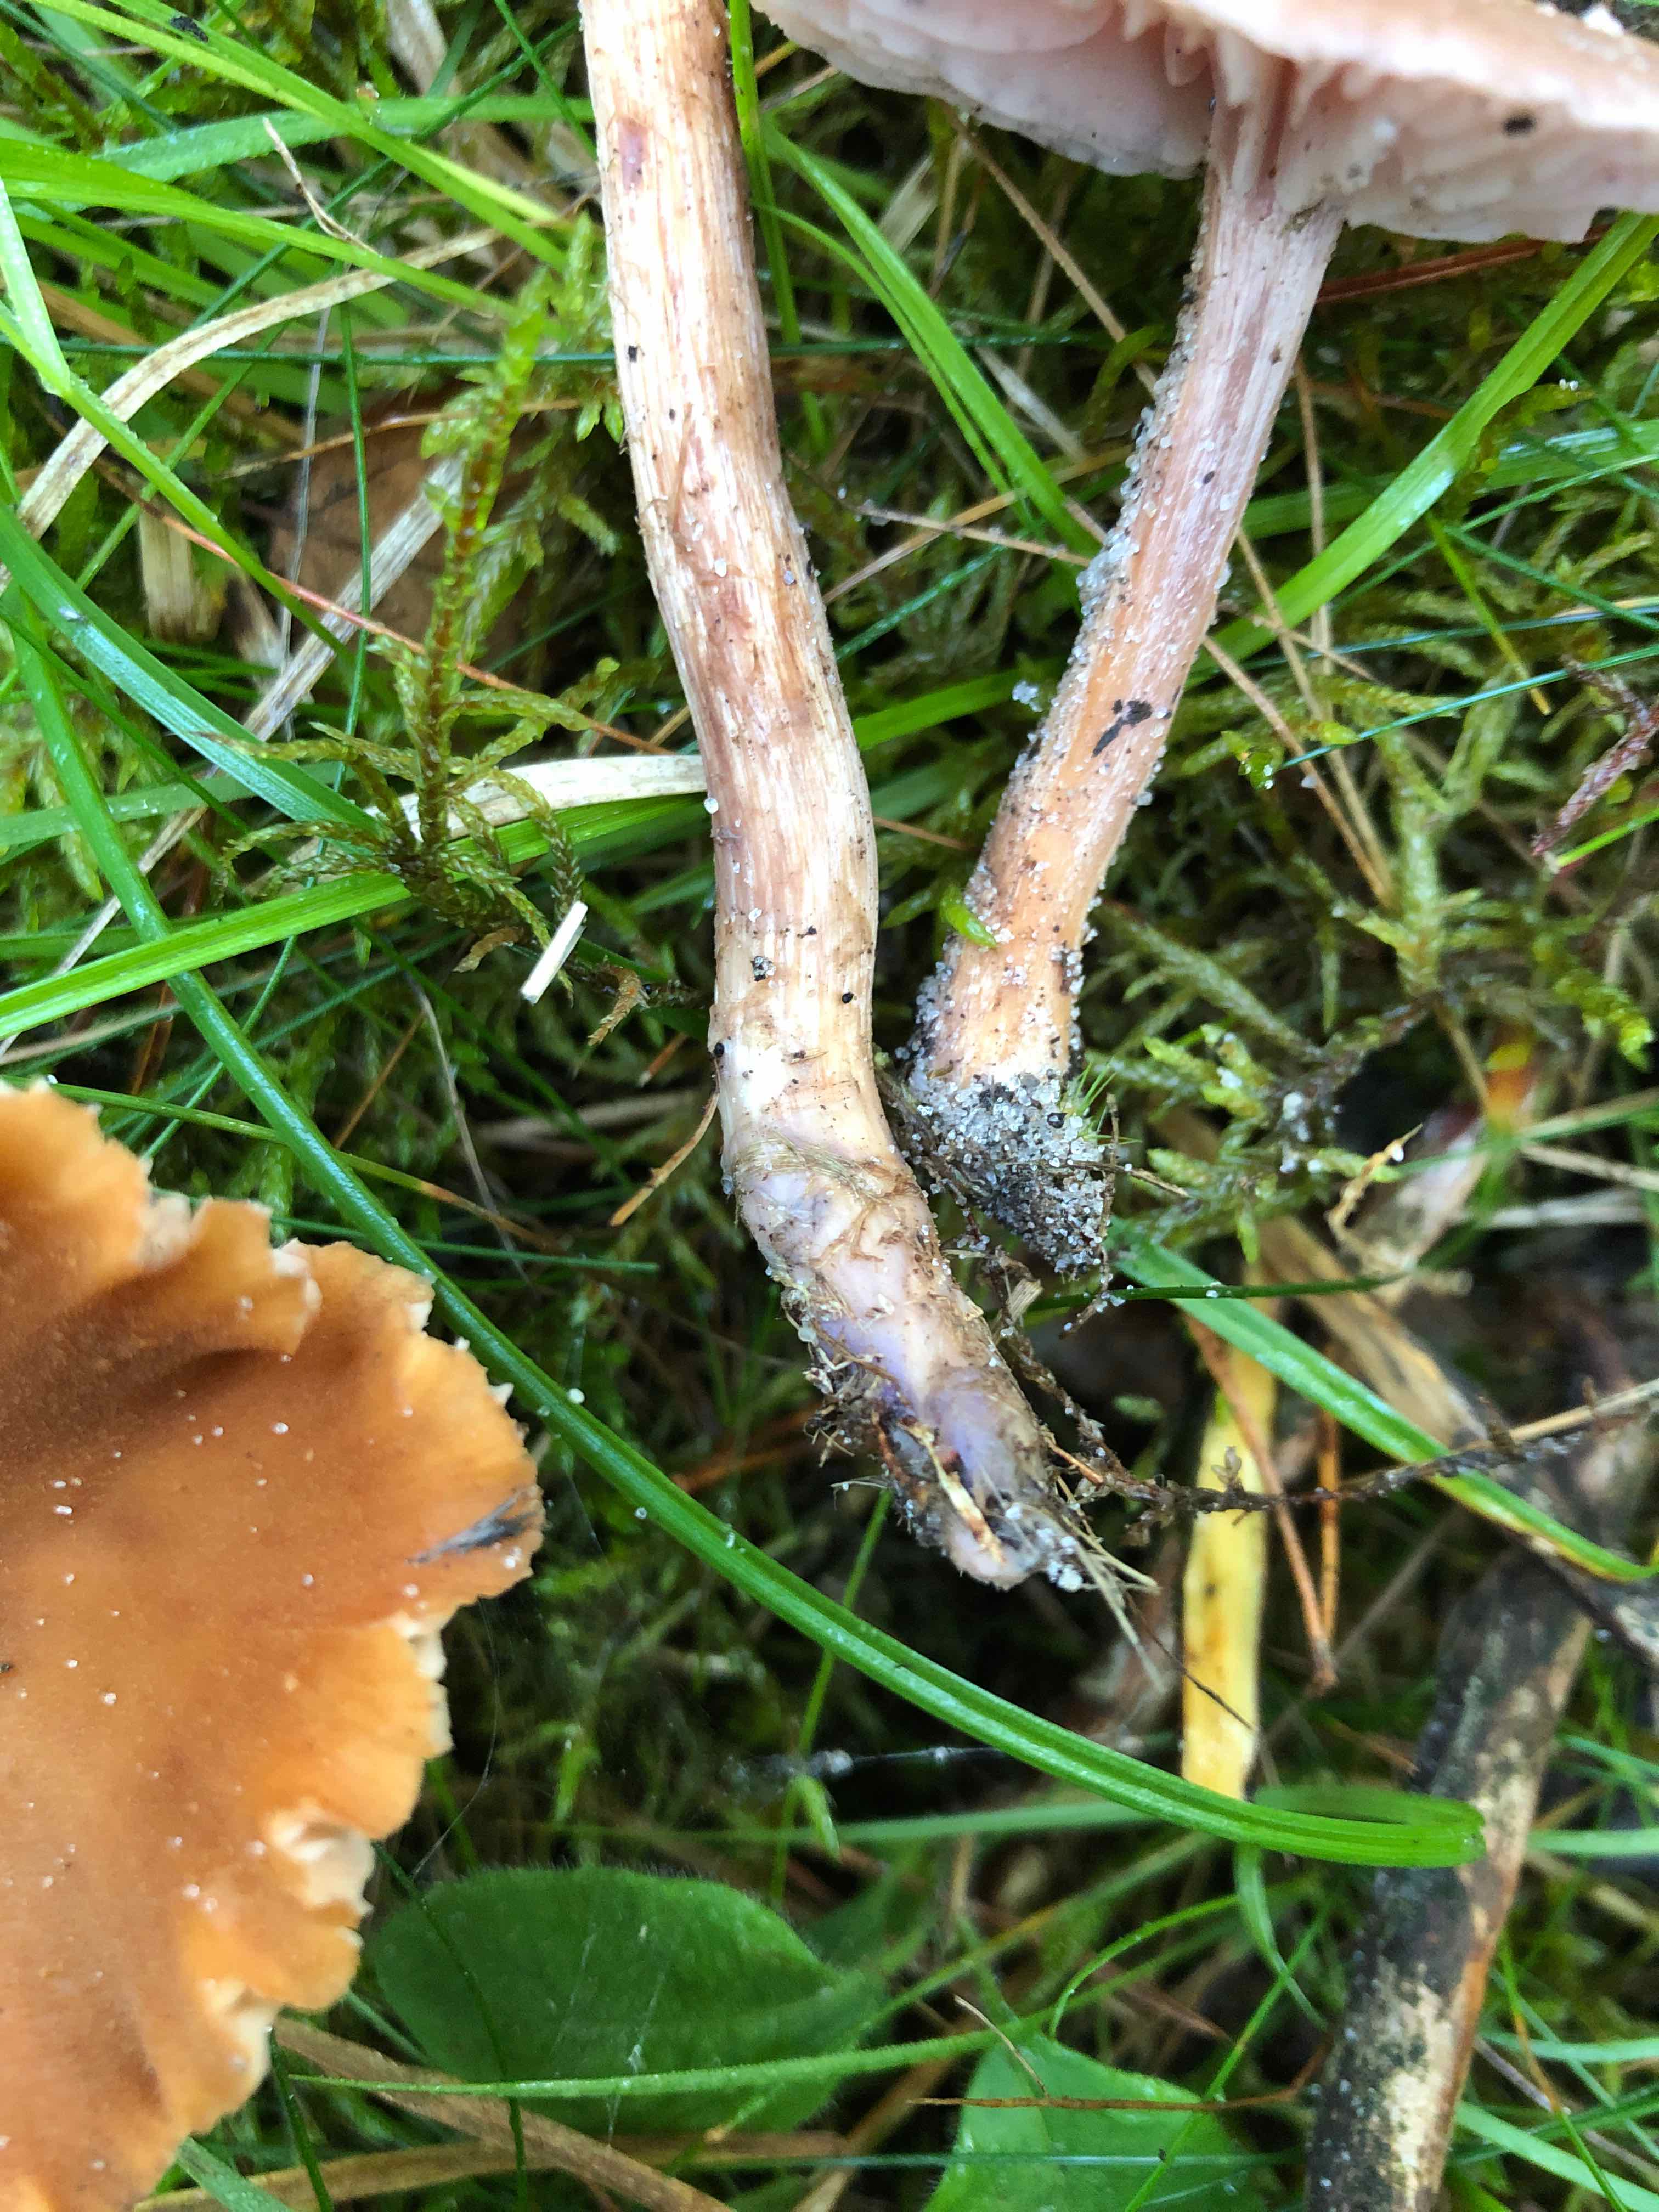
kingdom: Fungi
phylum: Basidiomycota
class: Agaricomycetes
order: Agaricales
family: Hydnangiaceae
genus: Laccaria
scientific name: Laccaria bicolor
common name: tvefarvet ametysthat
